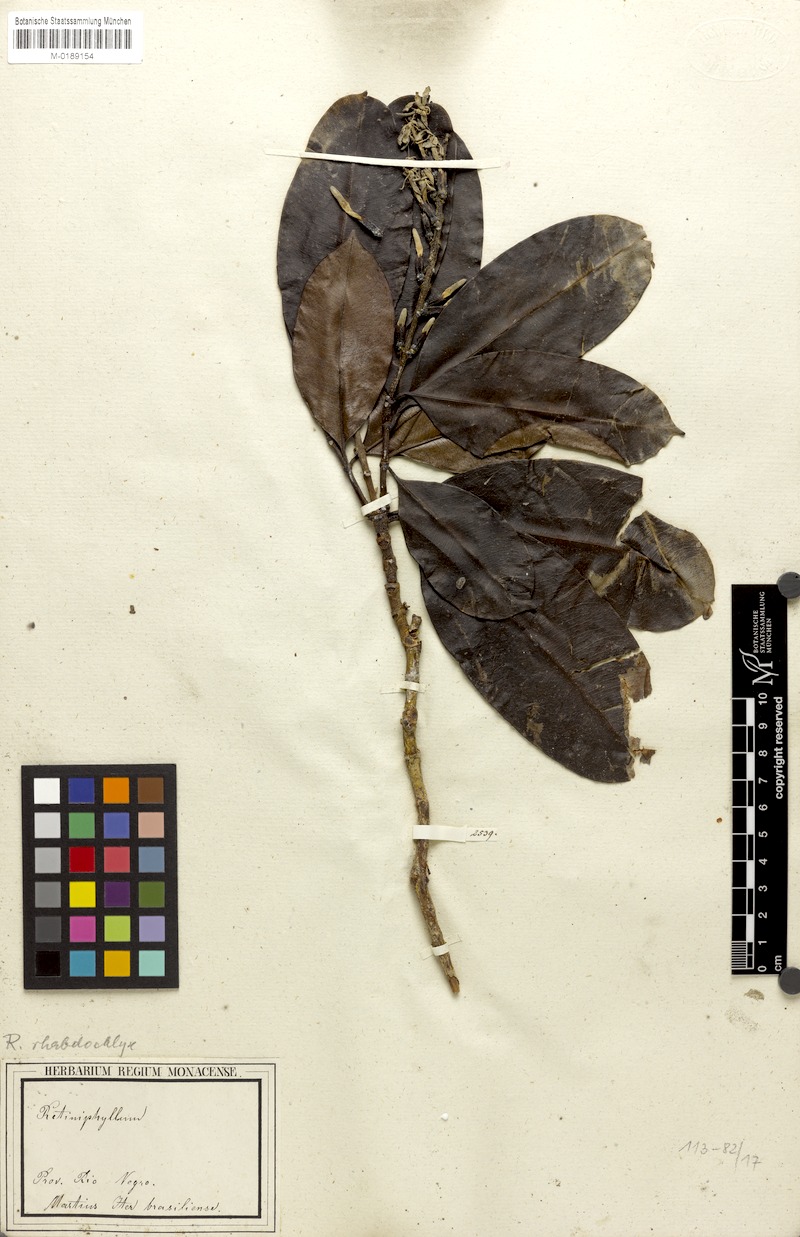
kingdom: Plantae
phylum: Tracheophyta
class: Magnoliopsida
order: Gentianales
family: Rubiaceae
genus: Retiniphyllum
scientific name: Retiniphyllum speciosum
